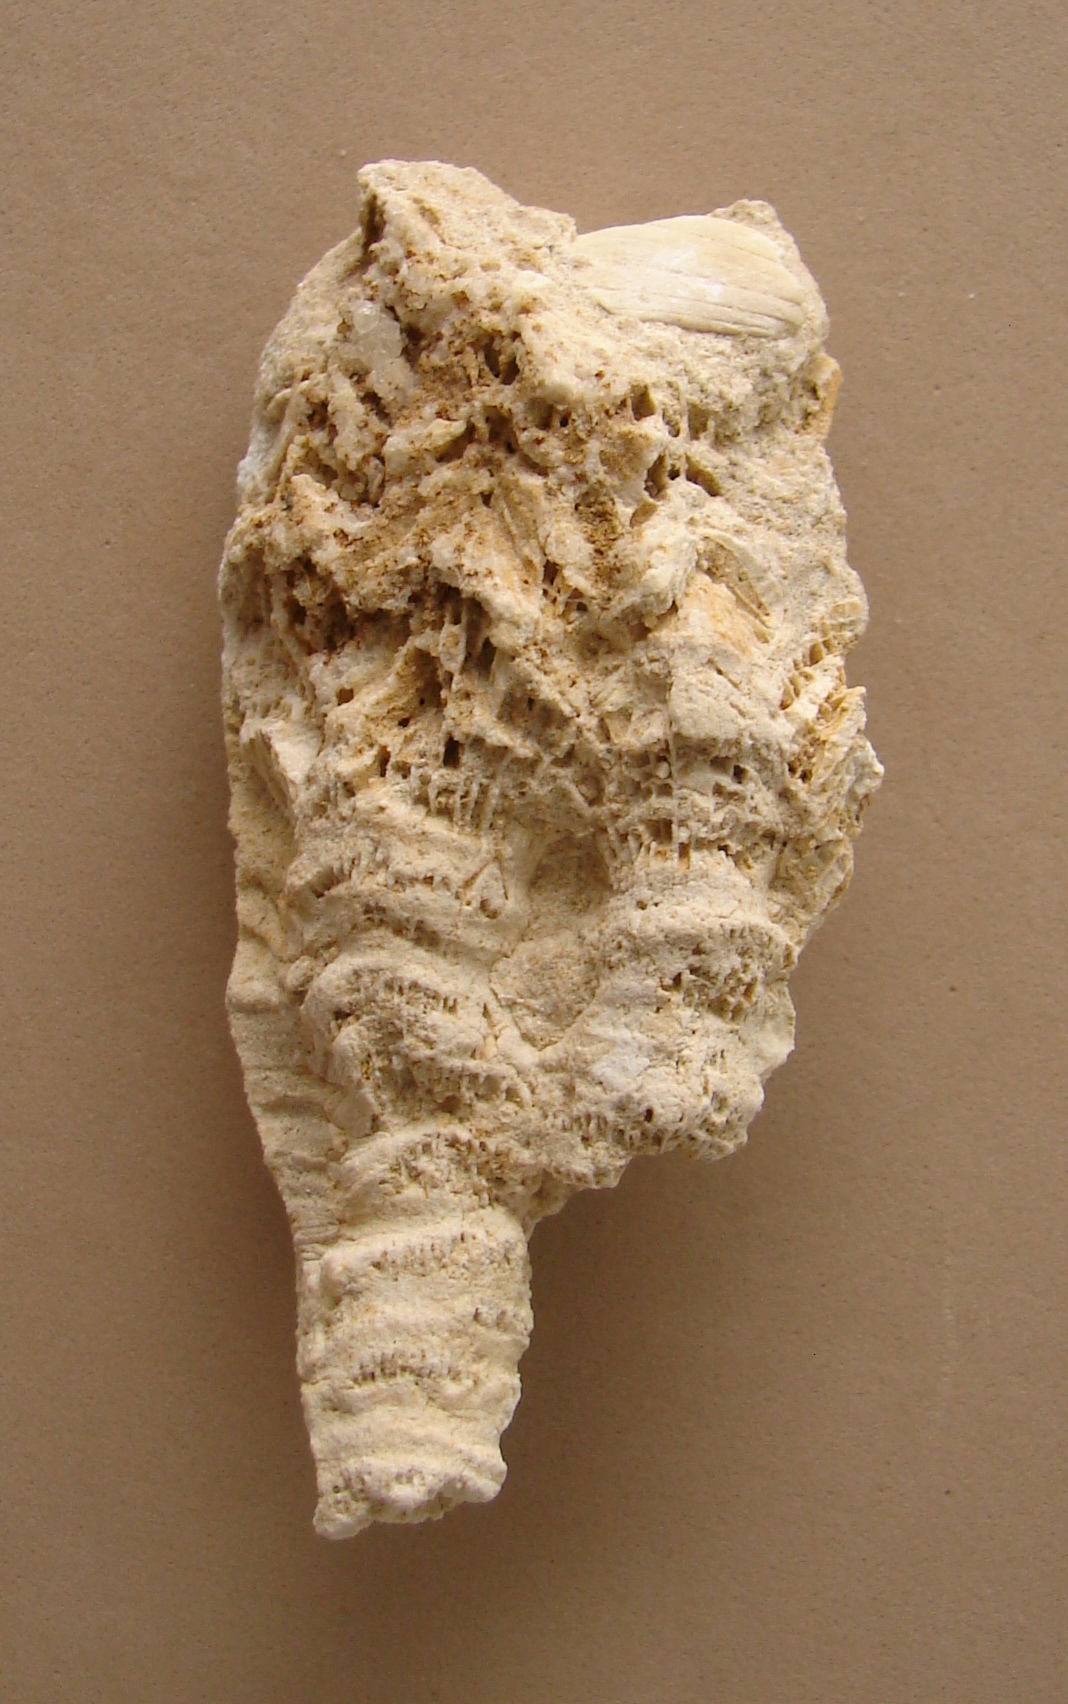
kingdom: Animalia
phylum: Cnidaria
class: Anthozoa
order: Scleractinia
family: Stylophyllidae
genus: Phacelostylophyllum
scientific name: Phacelostylophyllum
